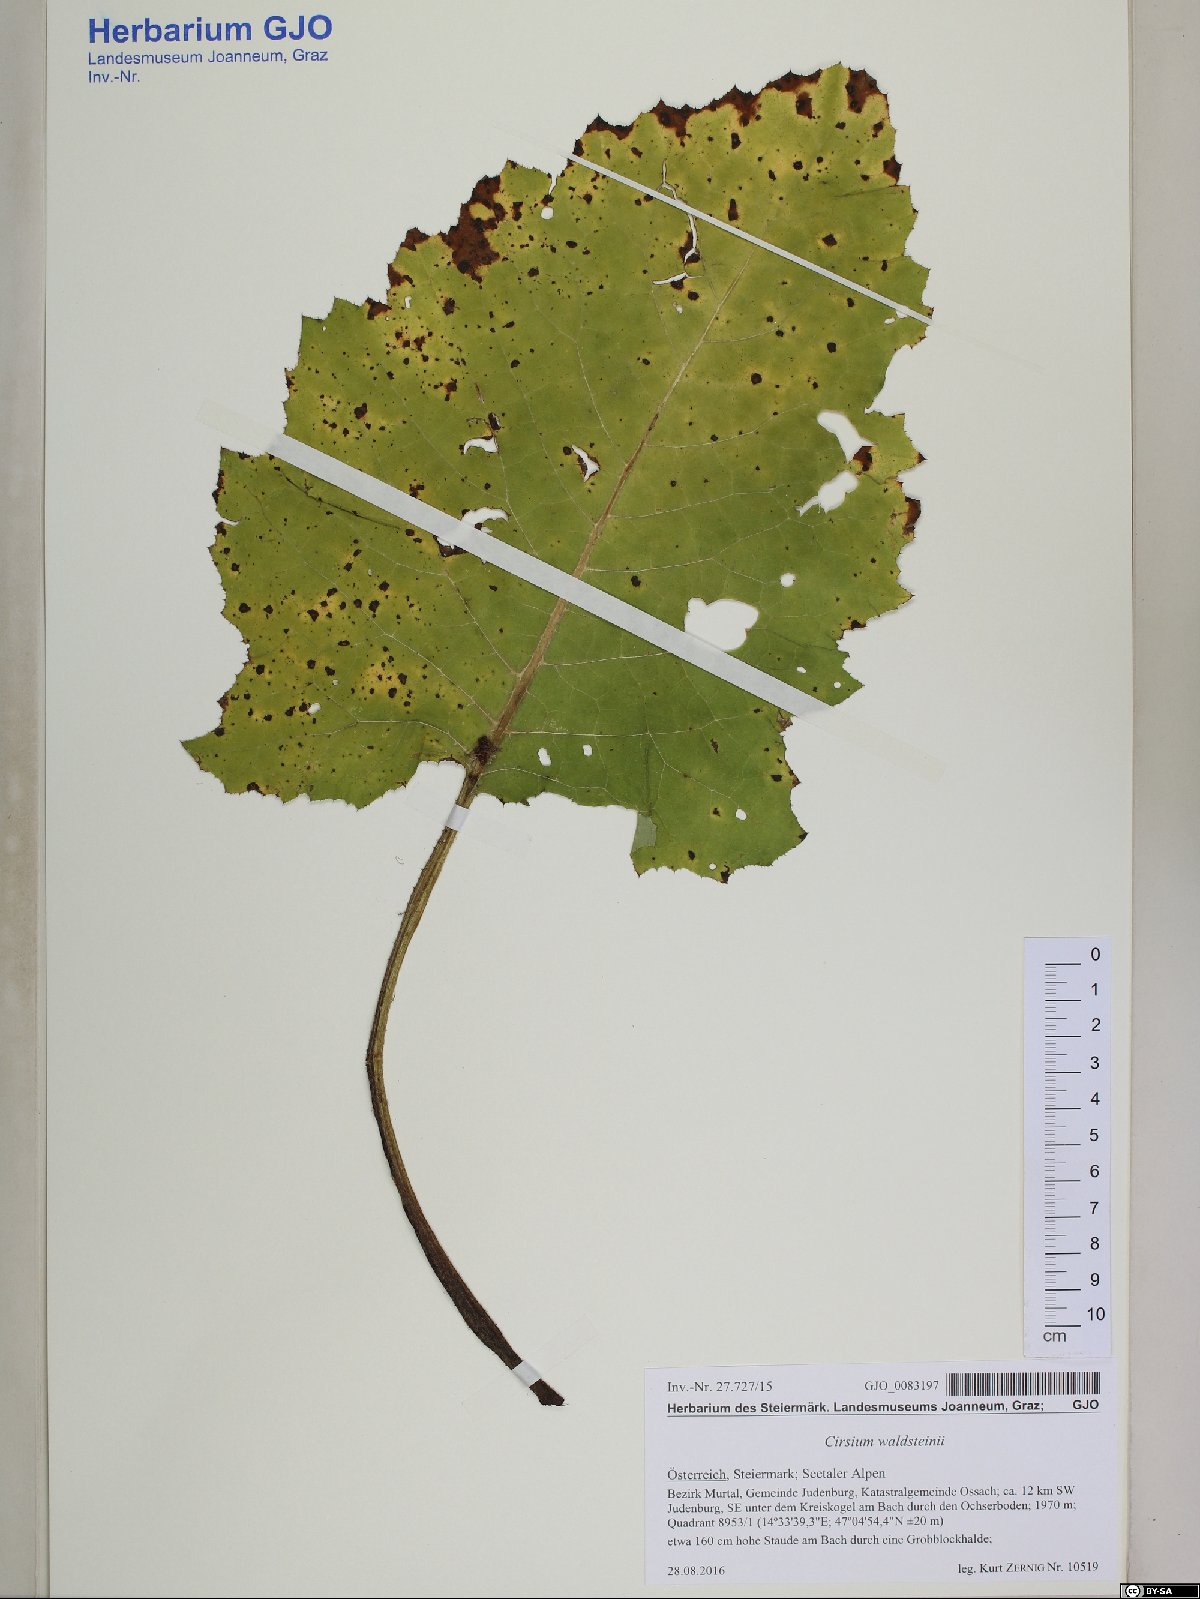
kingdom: Plantae
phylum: Tracheophyta
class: Magnoliopsida
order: Asterales
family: Asteraceae
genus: Cirsium
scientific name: Cirsium greimleri
